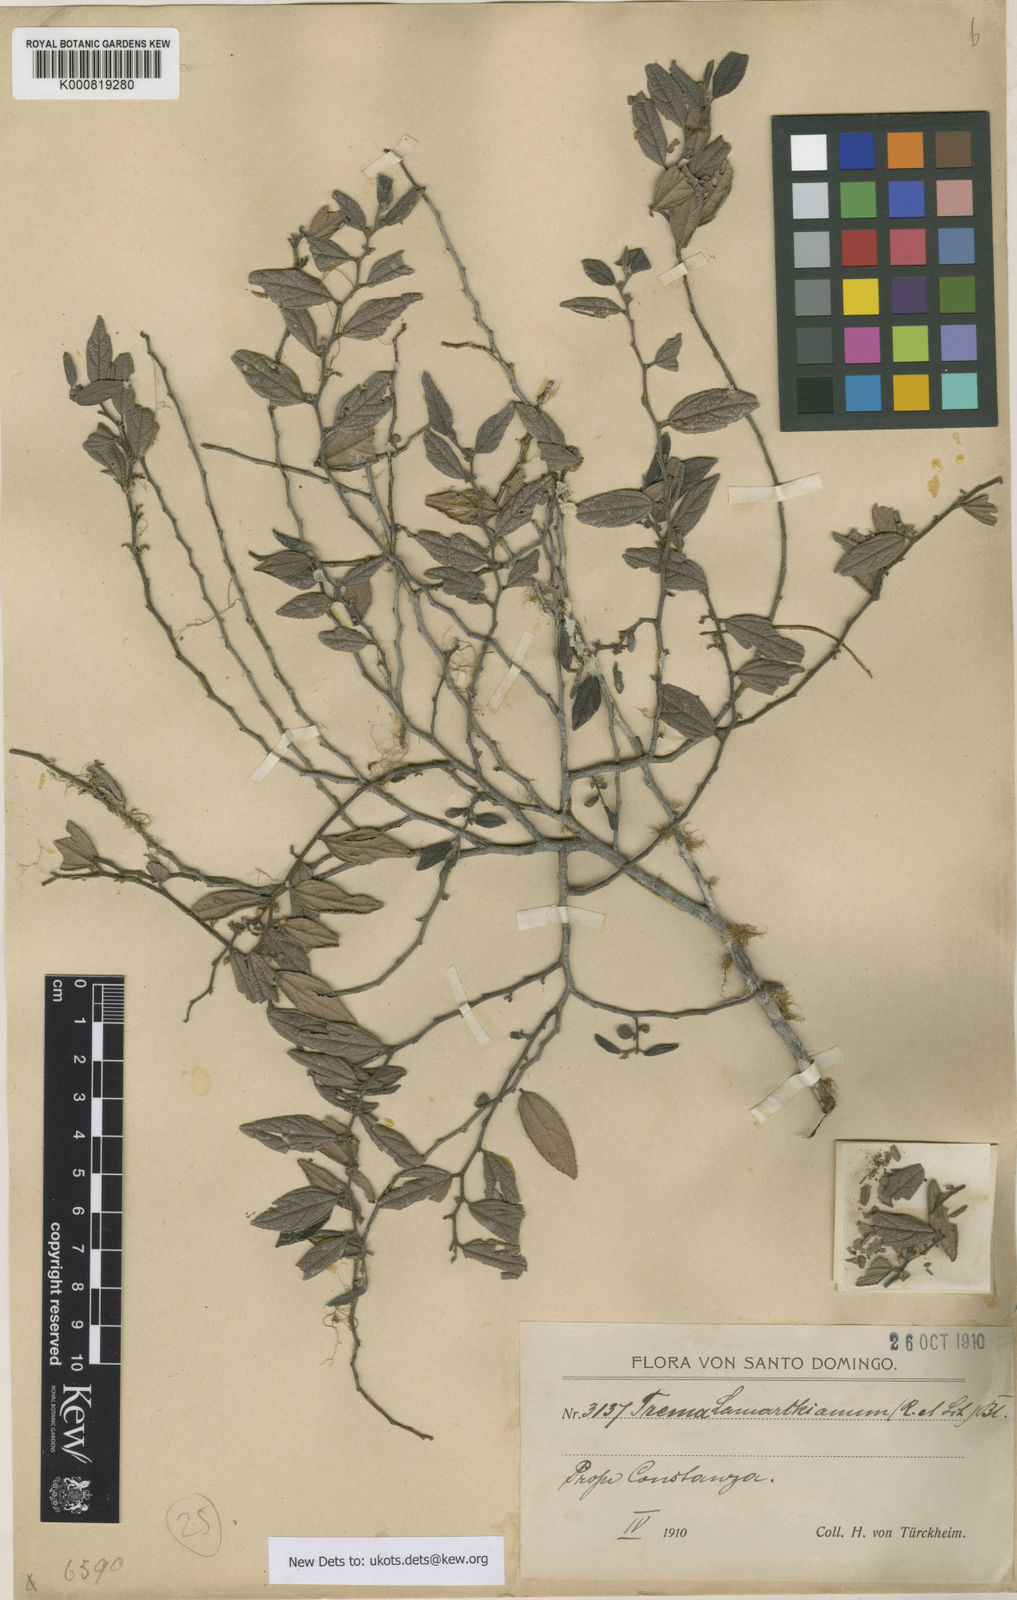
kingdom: Plantae
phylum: Tracheophyta
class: Magnoliopsida
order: Rosales
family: Cannabaceae
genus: Trema
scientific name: Trema lamarckianum
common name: Lamarck's trema
